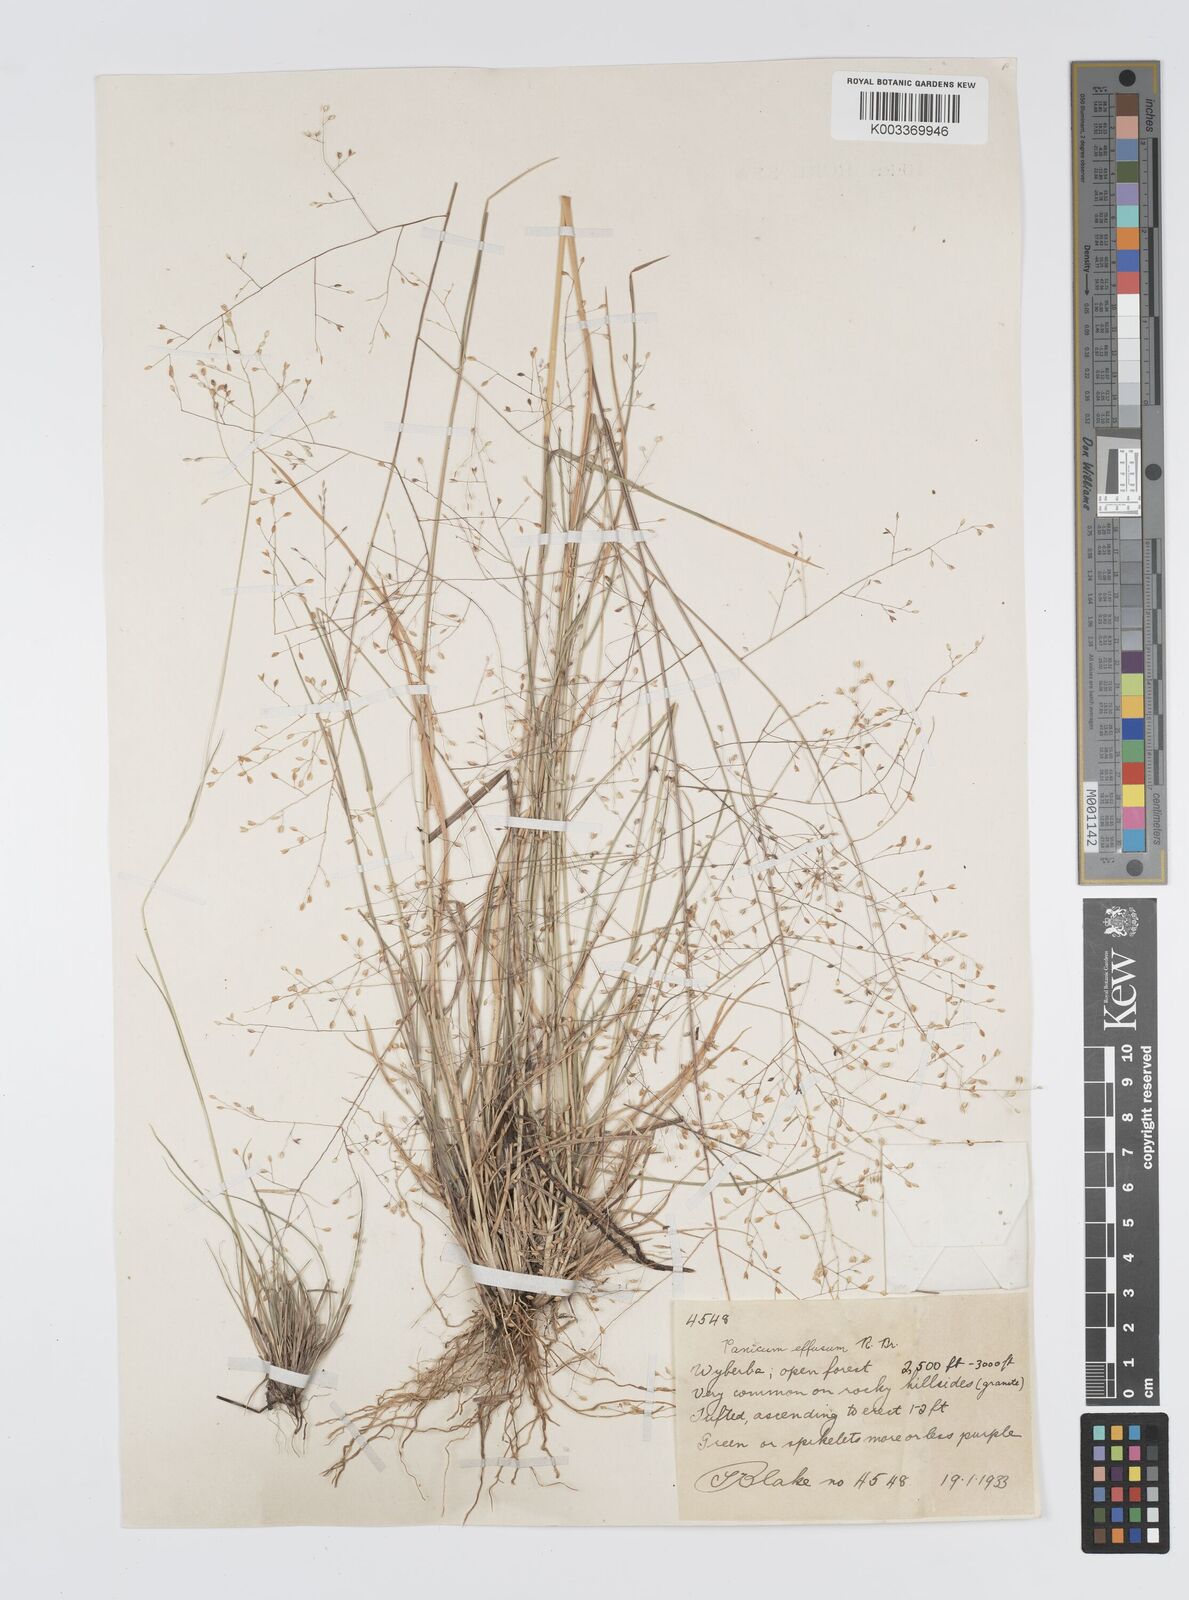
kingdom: Plantae
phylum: Tracheophyta
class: Liliopsida
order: Poales
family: Poaceae
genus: Panicum
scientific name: Panicum effusum
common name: Hairy panic grass
